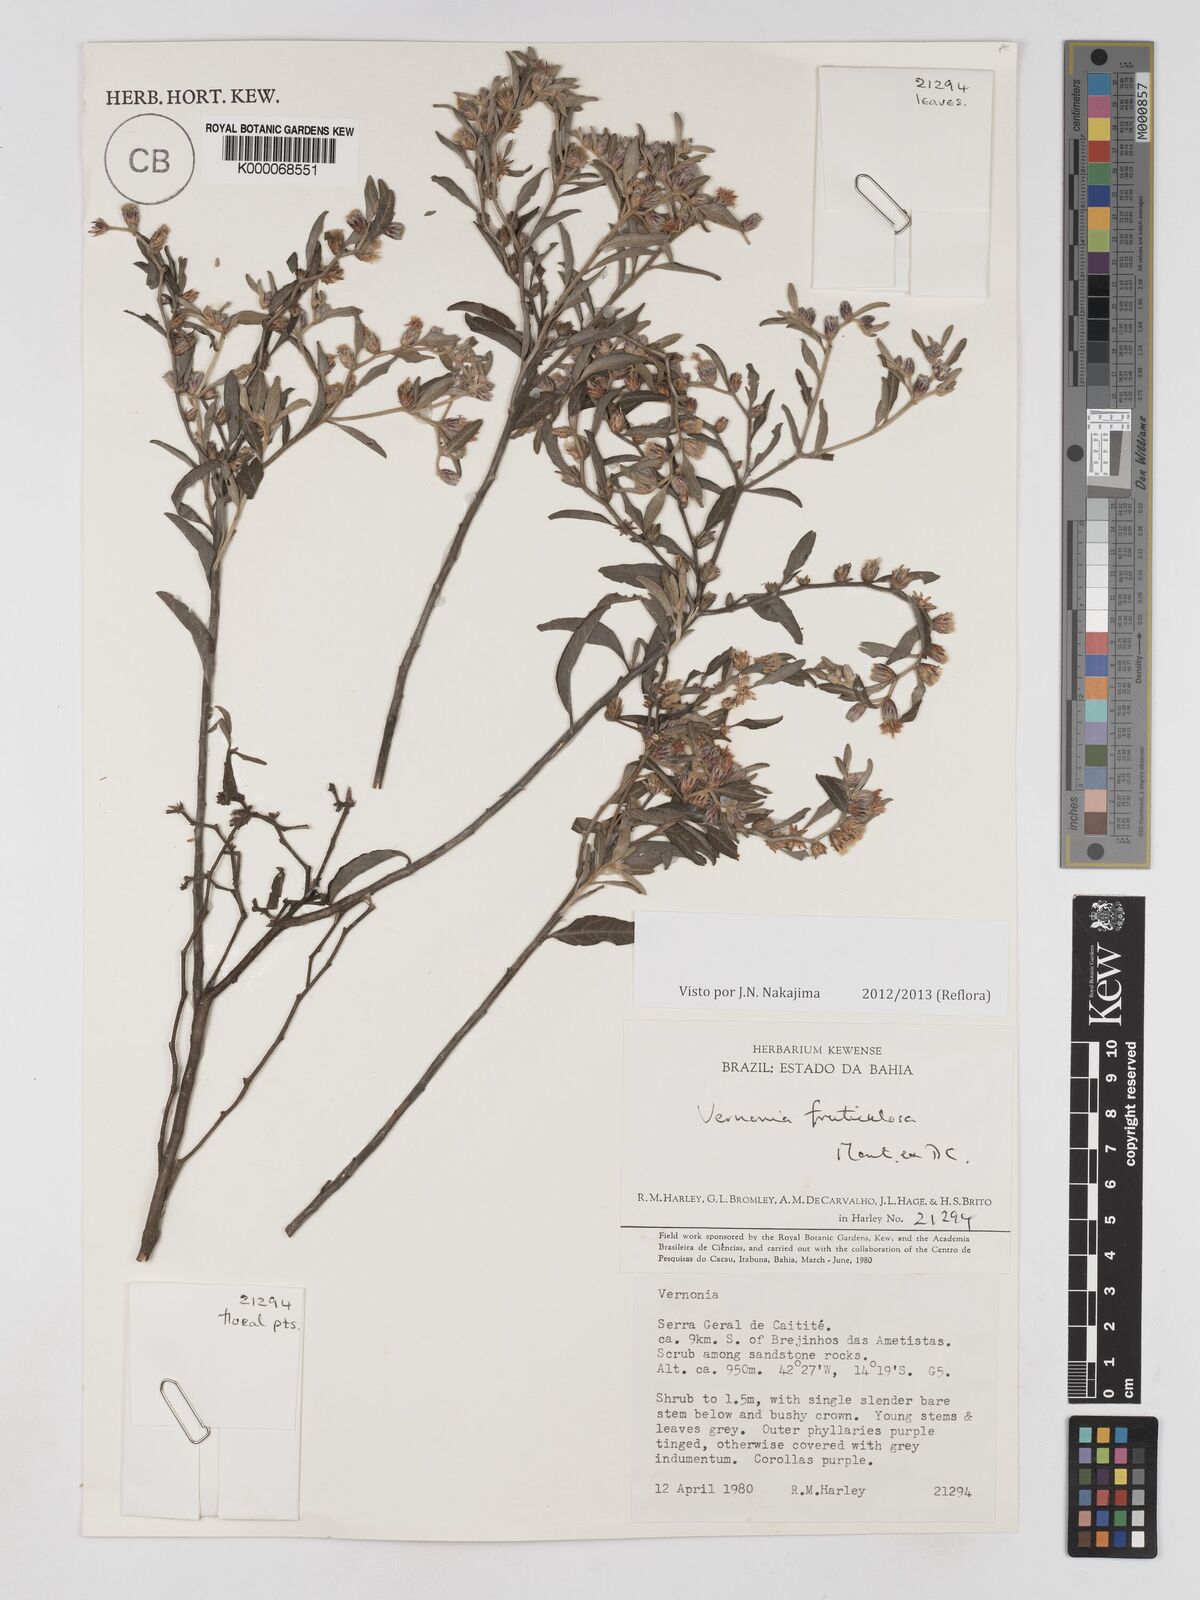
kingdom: Plantae
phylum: Tracheophyta
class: Magnoliopsida
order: Asterales
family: Asteraceae
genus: Lepidaploa
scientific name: Lepidaploa rufogrisea
